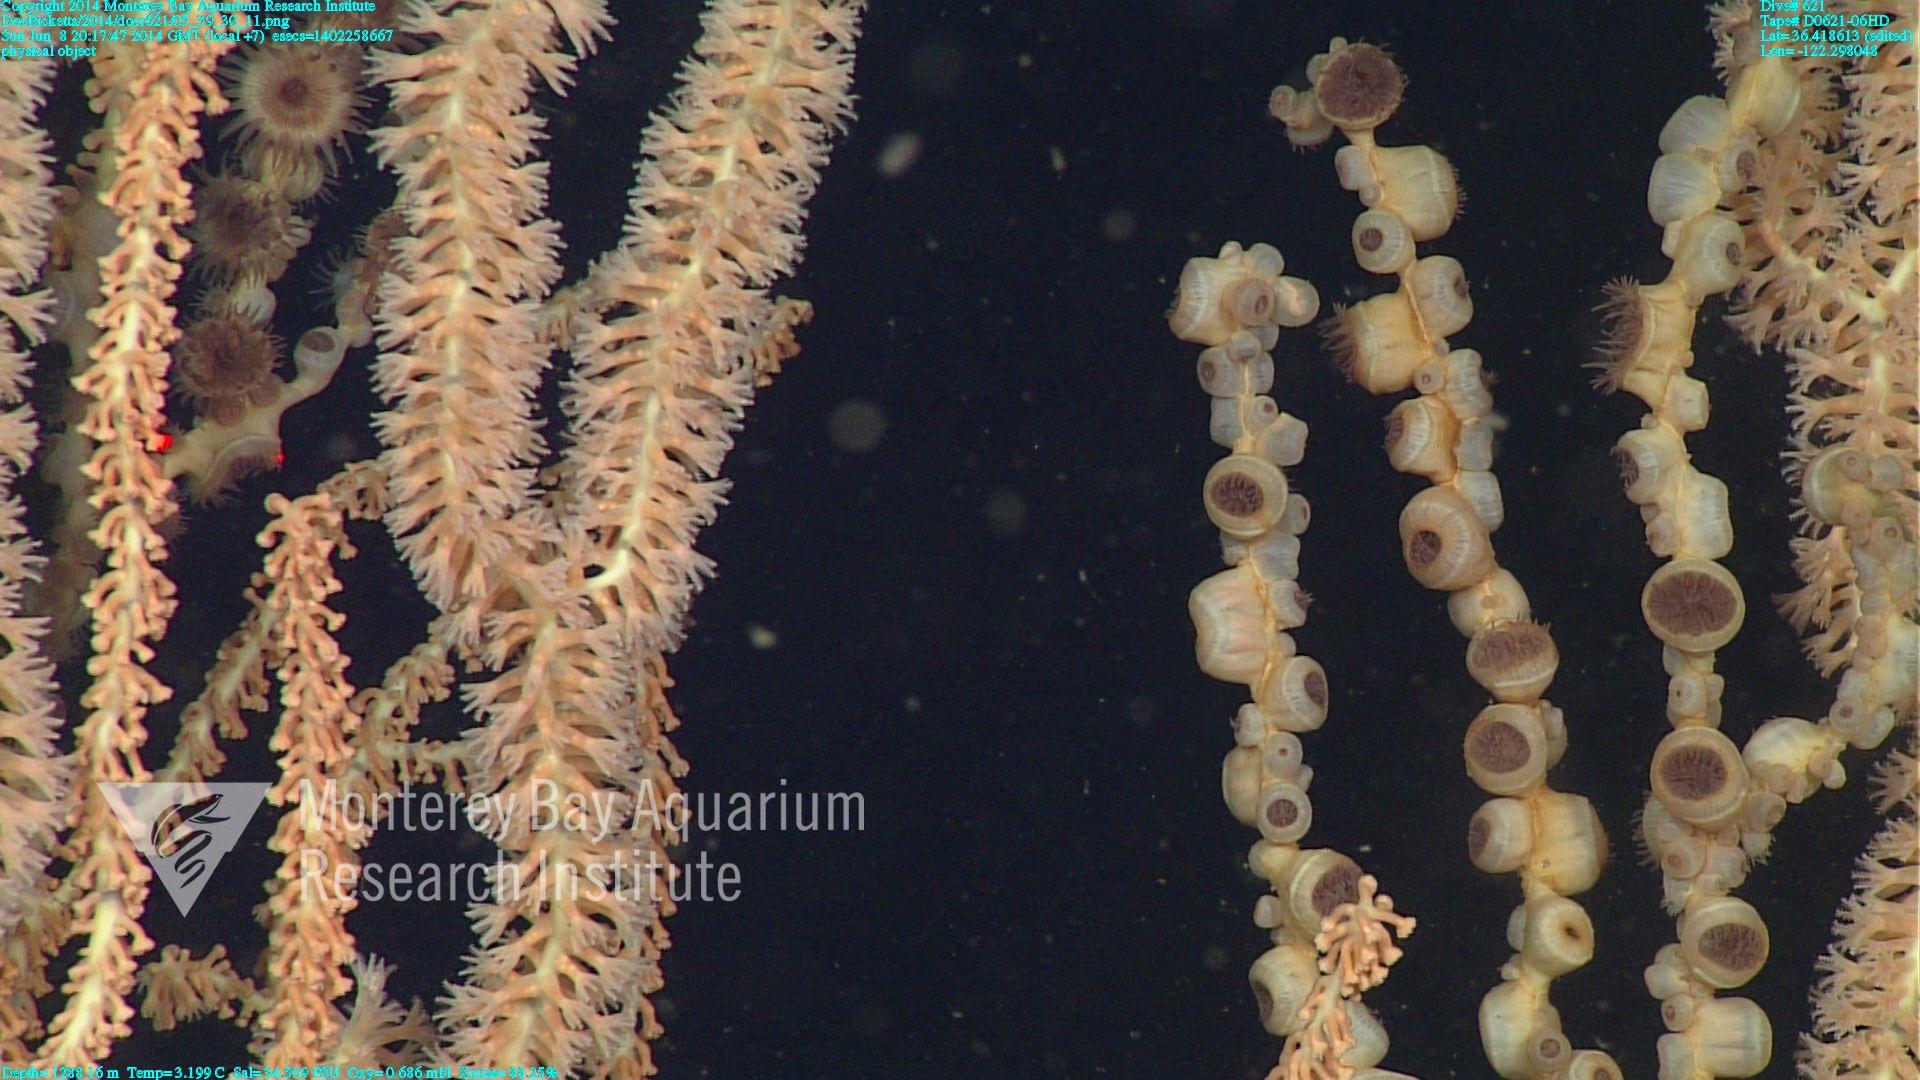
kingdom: Animalia
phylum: Cnidaria
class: Anthozoa
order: Scleralcyonacea
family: Keratoisididae
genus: Keratoisis
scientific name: Keratoisis
